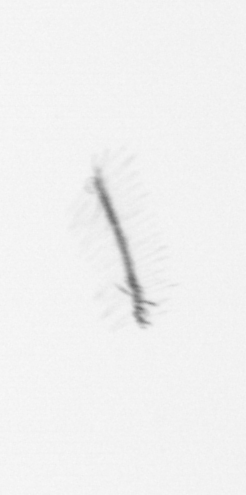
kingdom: Chromista
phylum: Ochrophyta
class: Bacillariophyceae
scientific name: Bacillariophyceae
